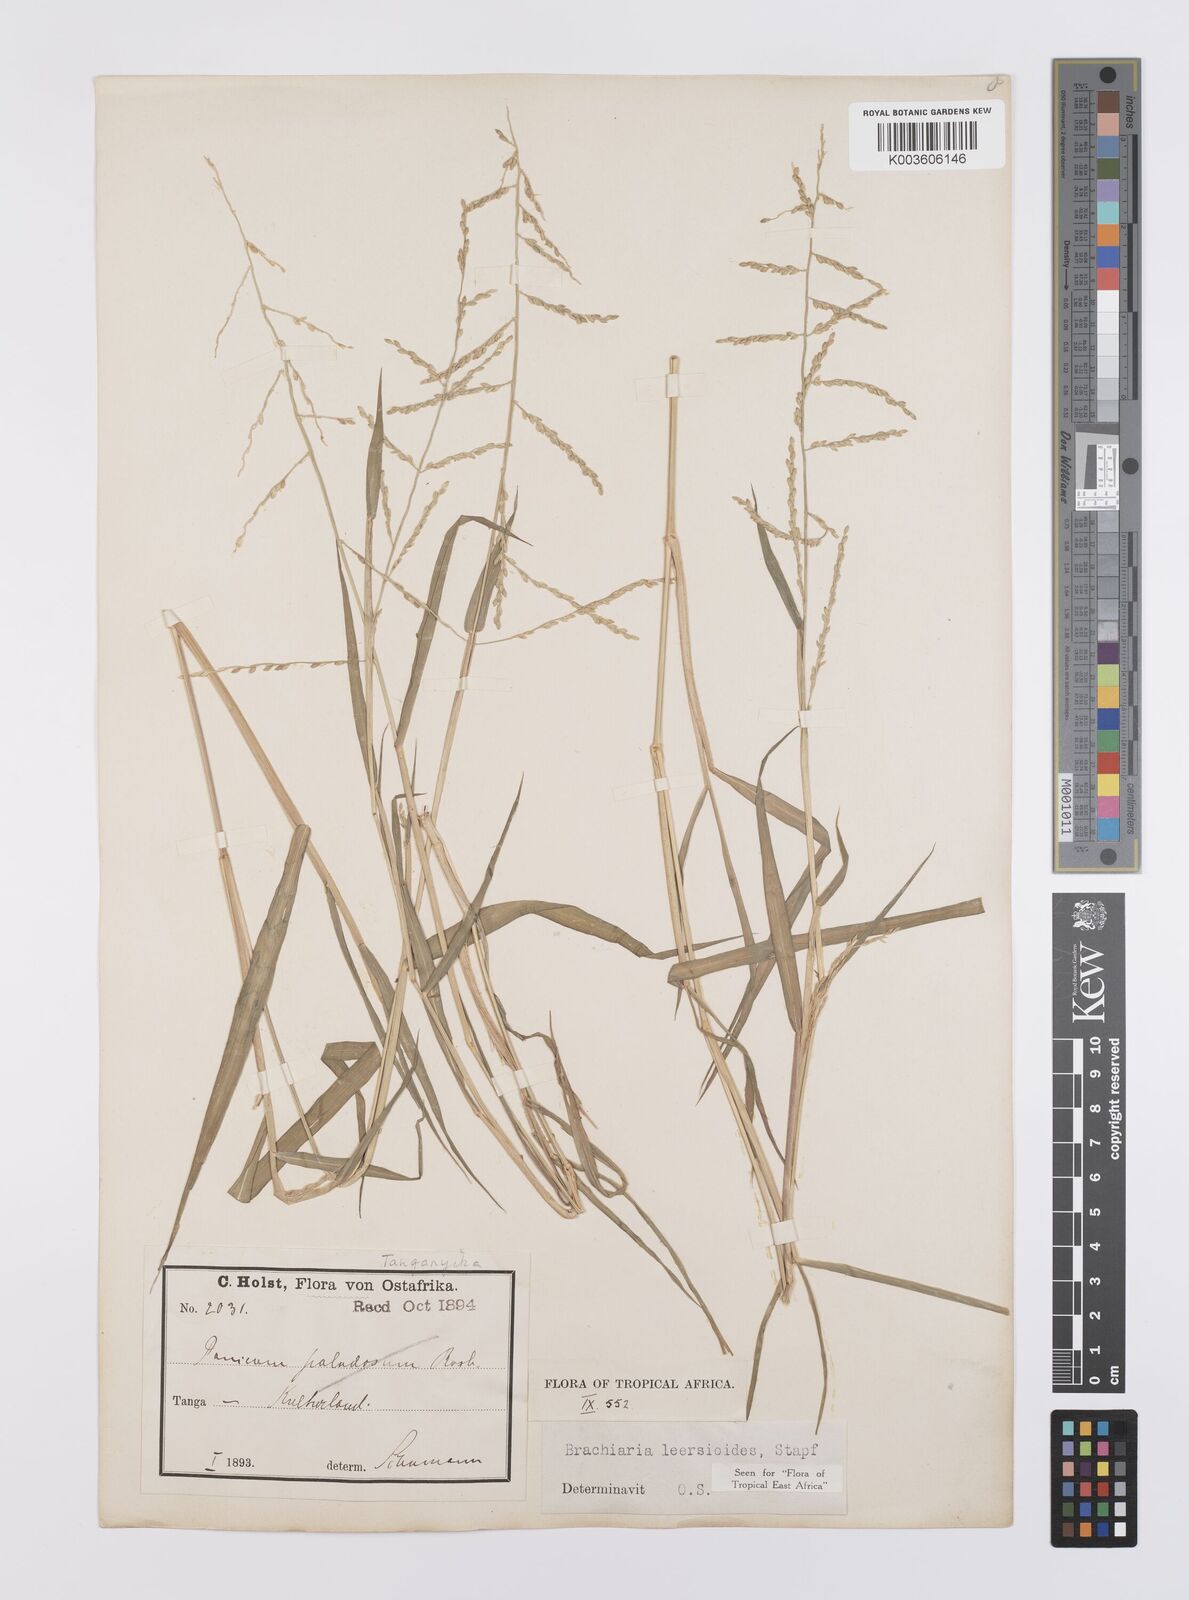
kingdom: Plantae
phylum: Tracheophyta
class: Liliopsida
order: Poales
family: Poaceae
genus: Urochloa
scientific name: Urochloa leersioides
